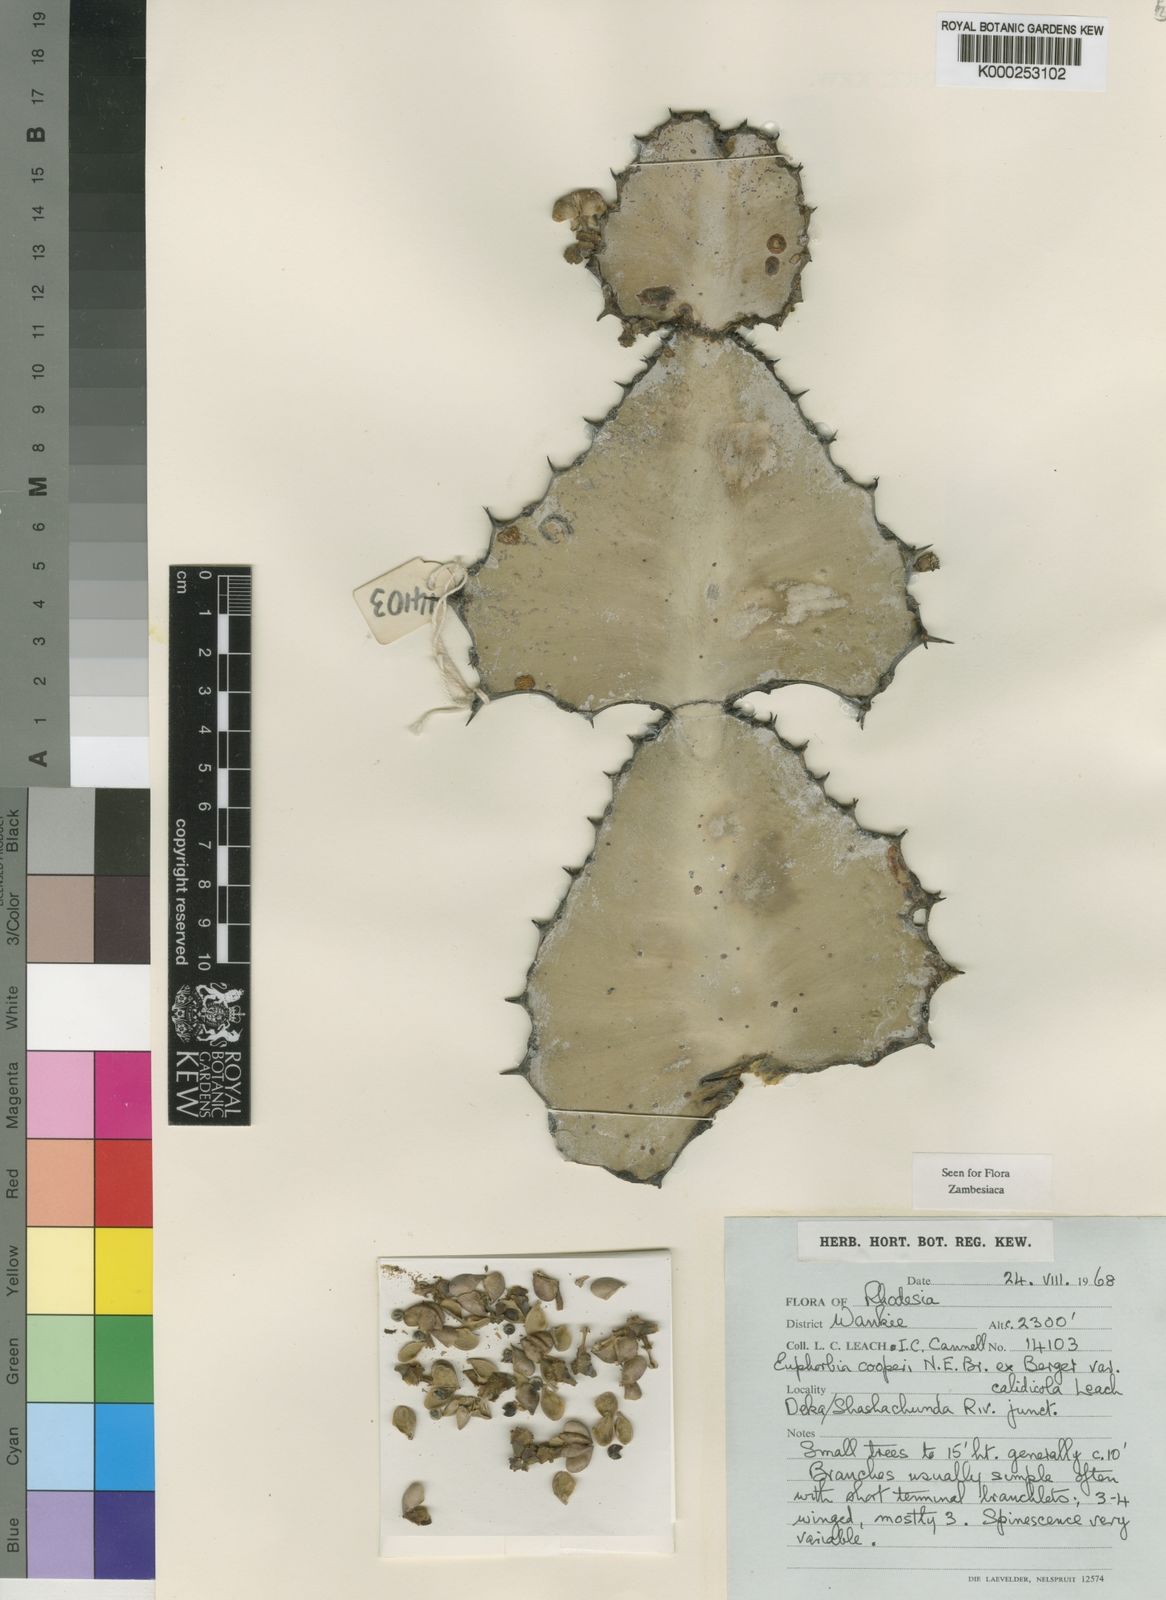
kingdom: Plantae
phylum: Tracheophyta
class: Magnoliopsida
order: Malpighiales
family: Euphorbiaceae
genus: Euphorbia
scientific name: Euphorbia cooperi
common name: Candelabra tree
